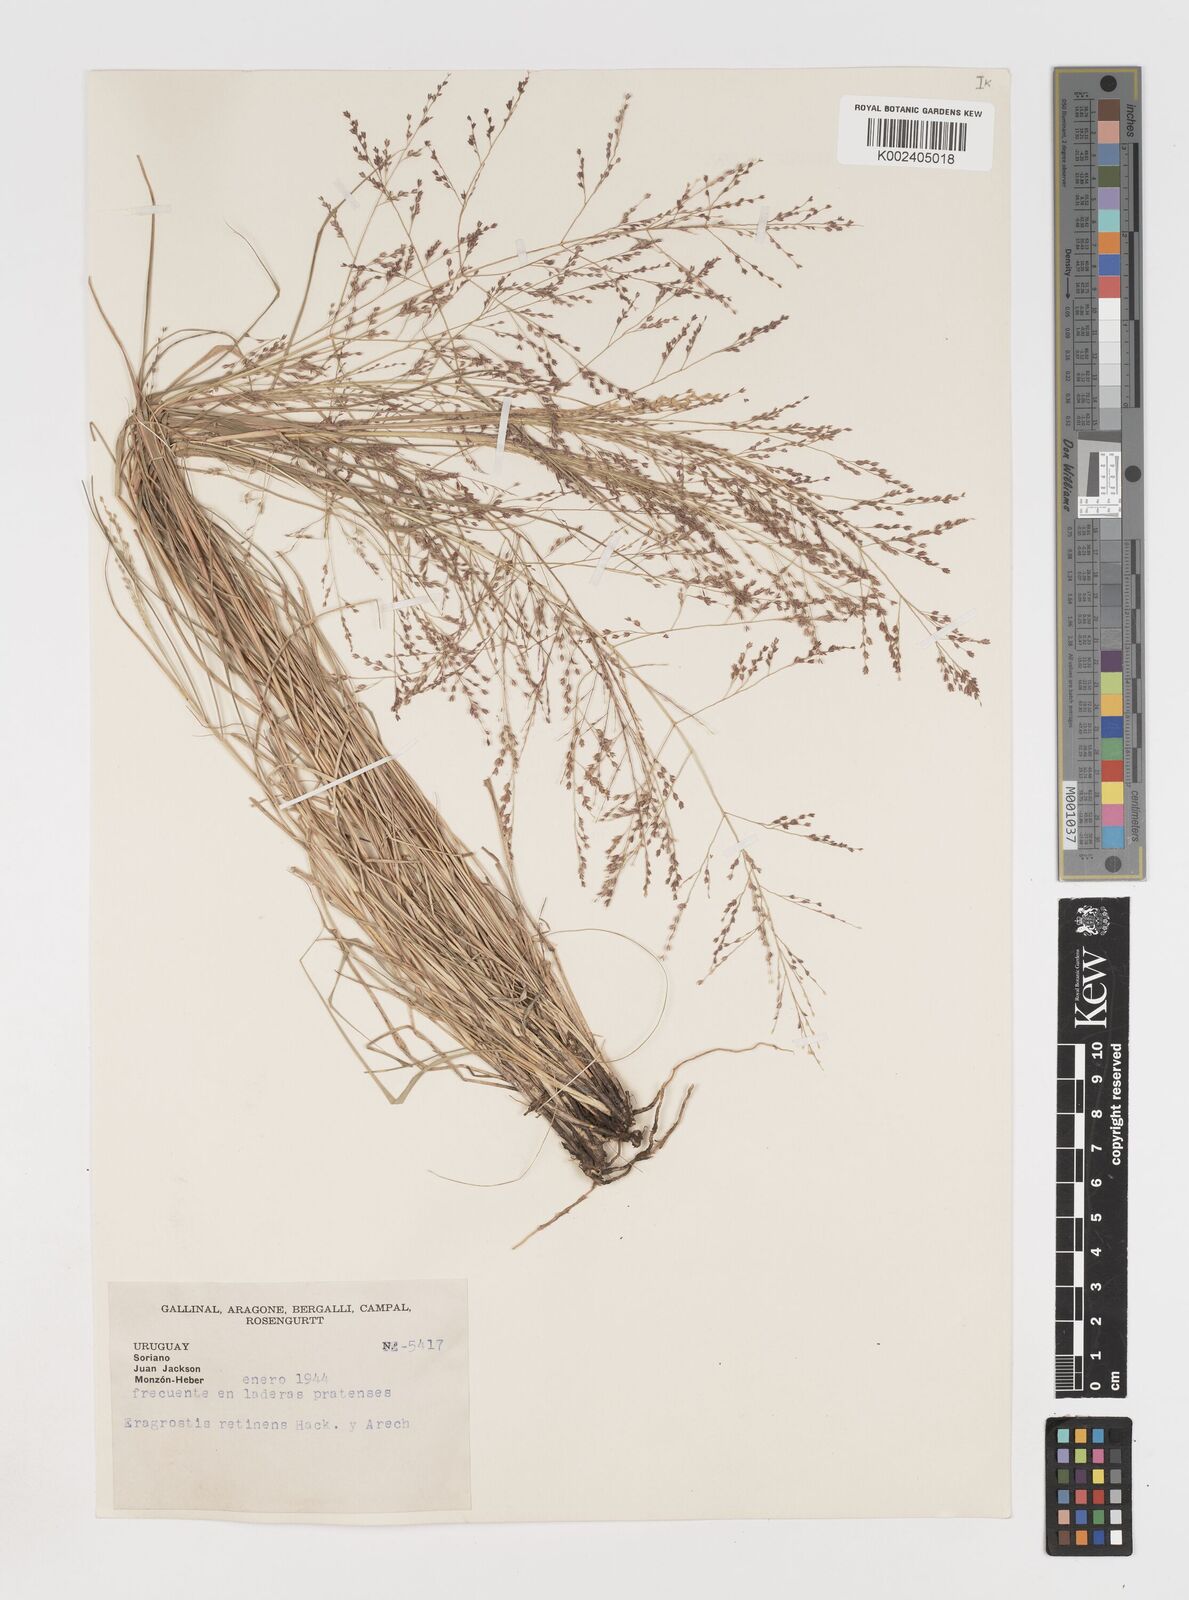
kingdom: Plantae
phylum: Tracheophyta
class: Liliopsida
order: Poales
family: Poaceae
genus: Eragrostis
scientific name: Eragrostis retinens
